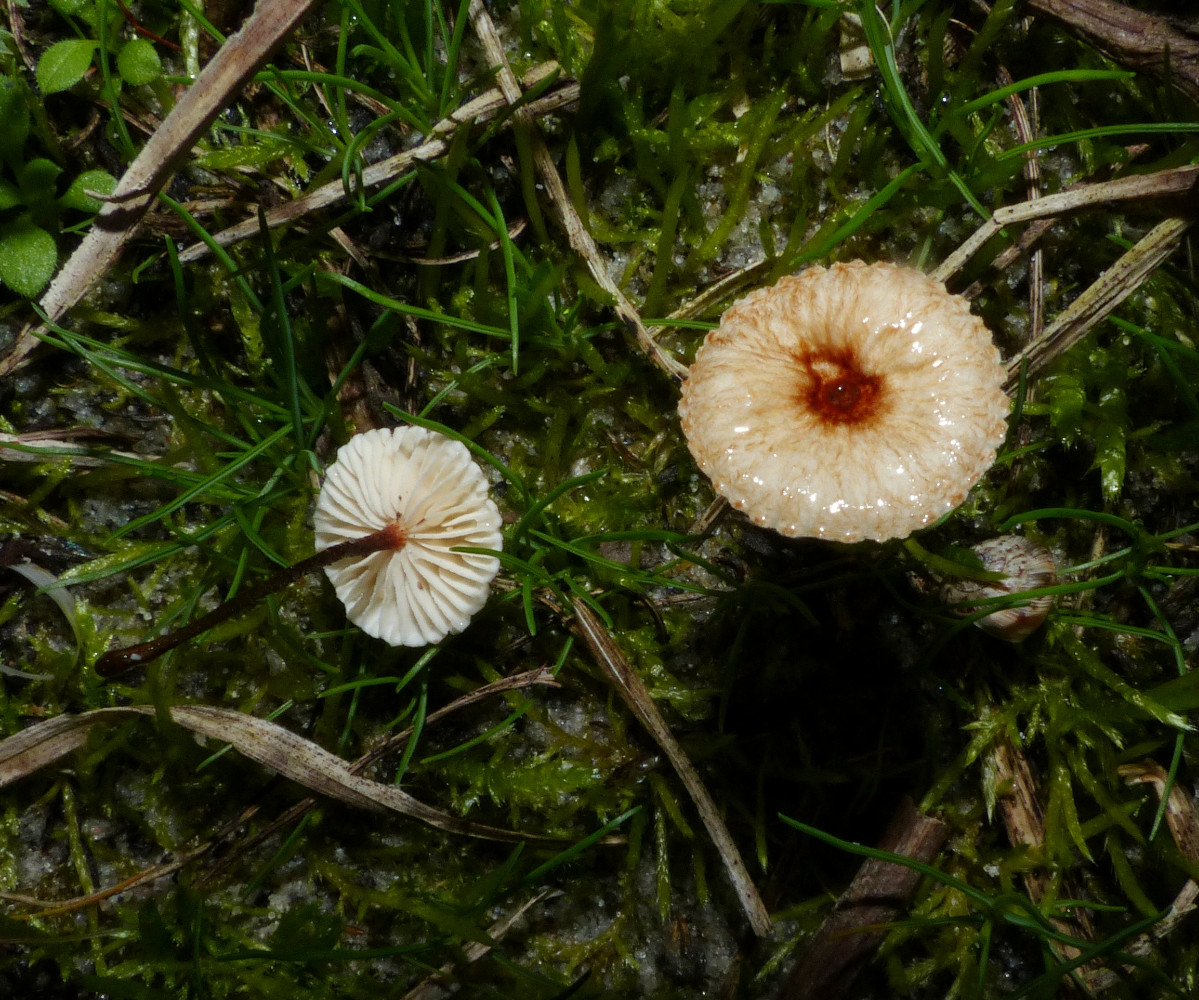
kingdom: Fungi
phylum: Basidiomycota
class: Agaricomycetes
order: Agaricales
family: Marasmiaceae
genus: Crinipellis
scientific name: Crinipellis scabella
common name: børstefod
